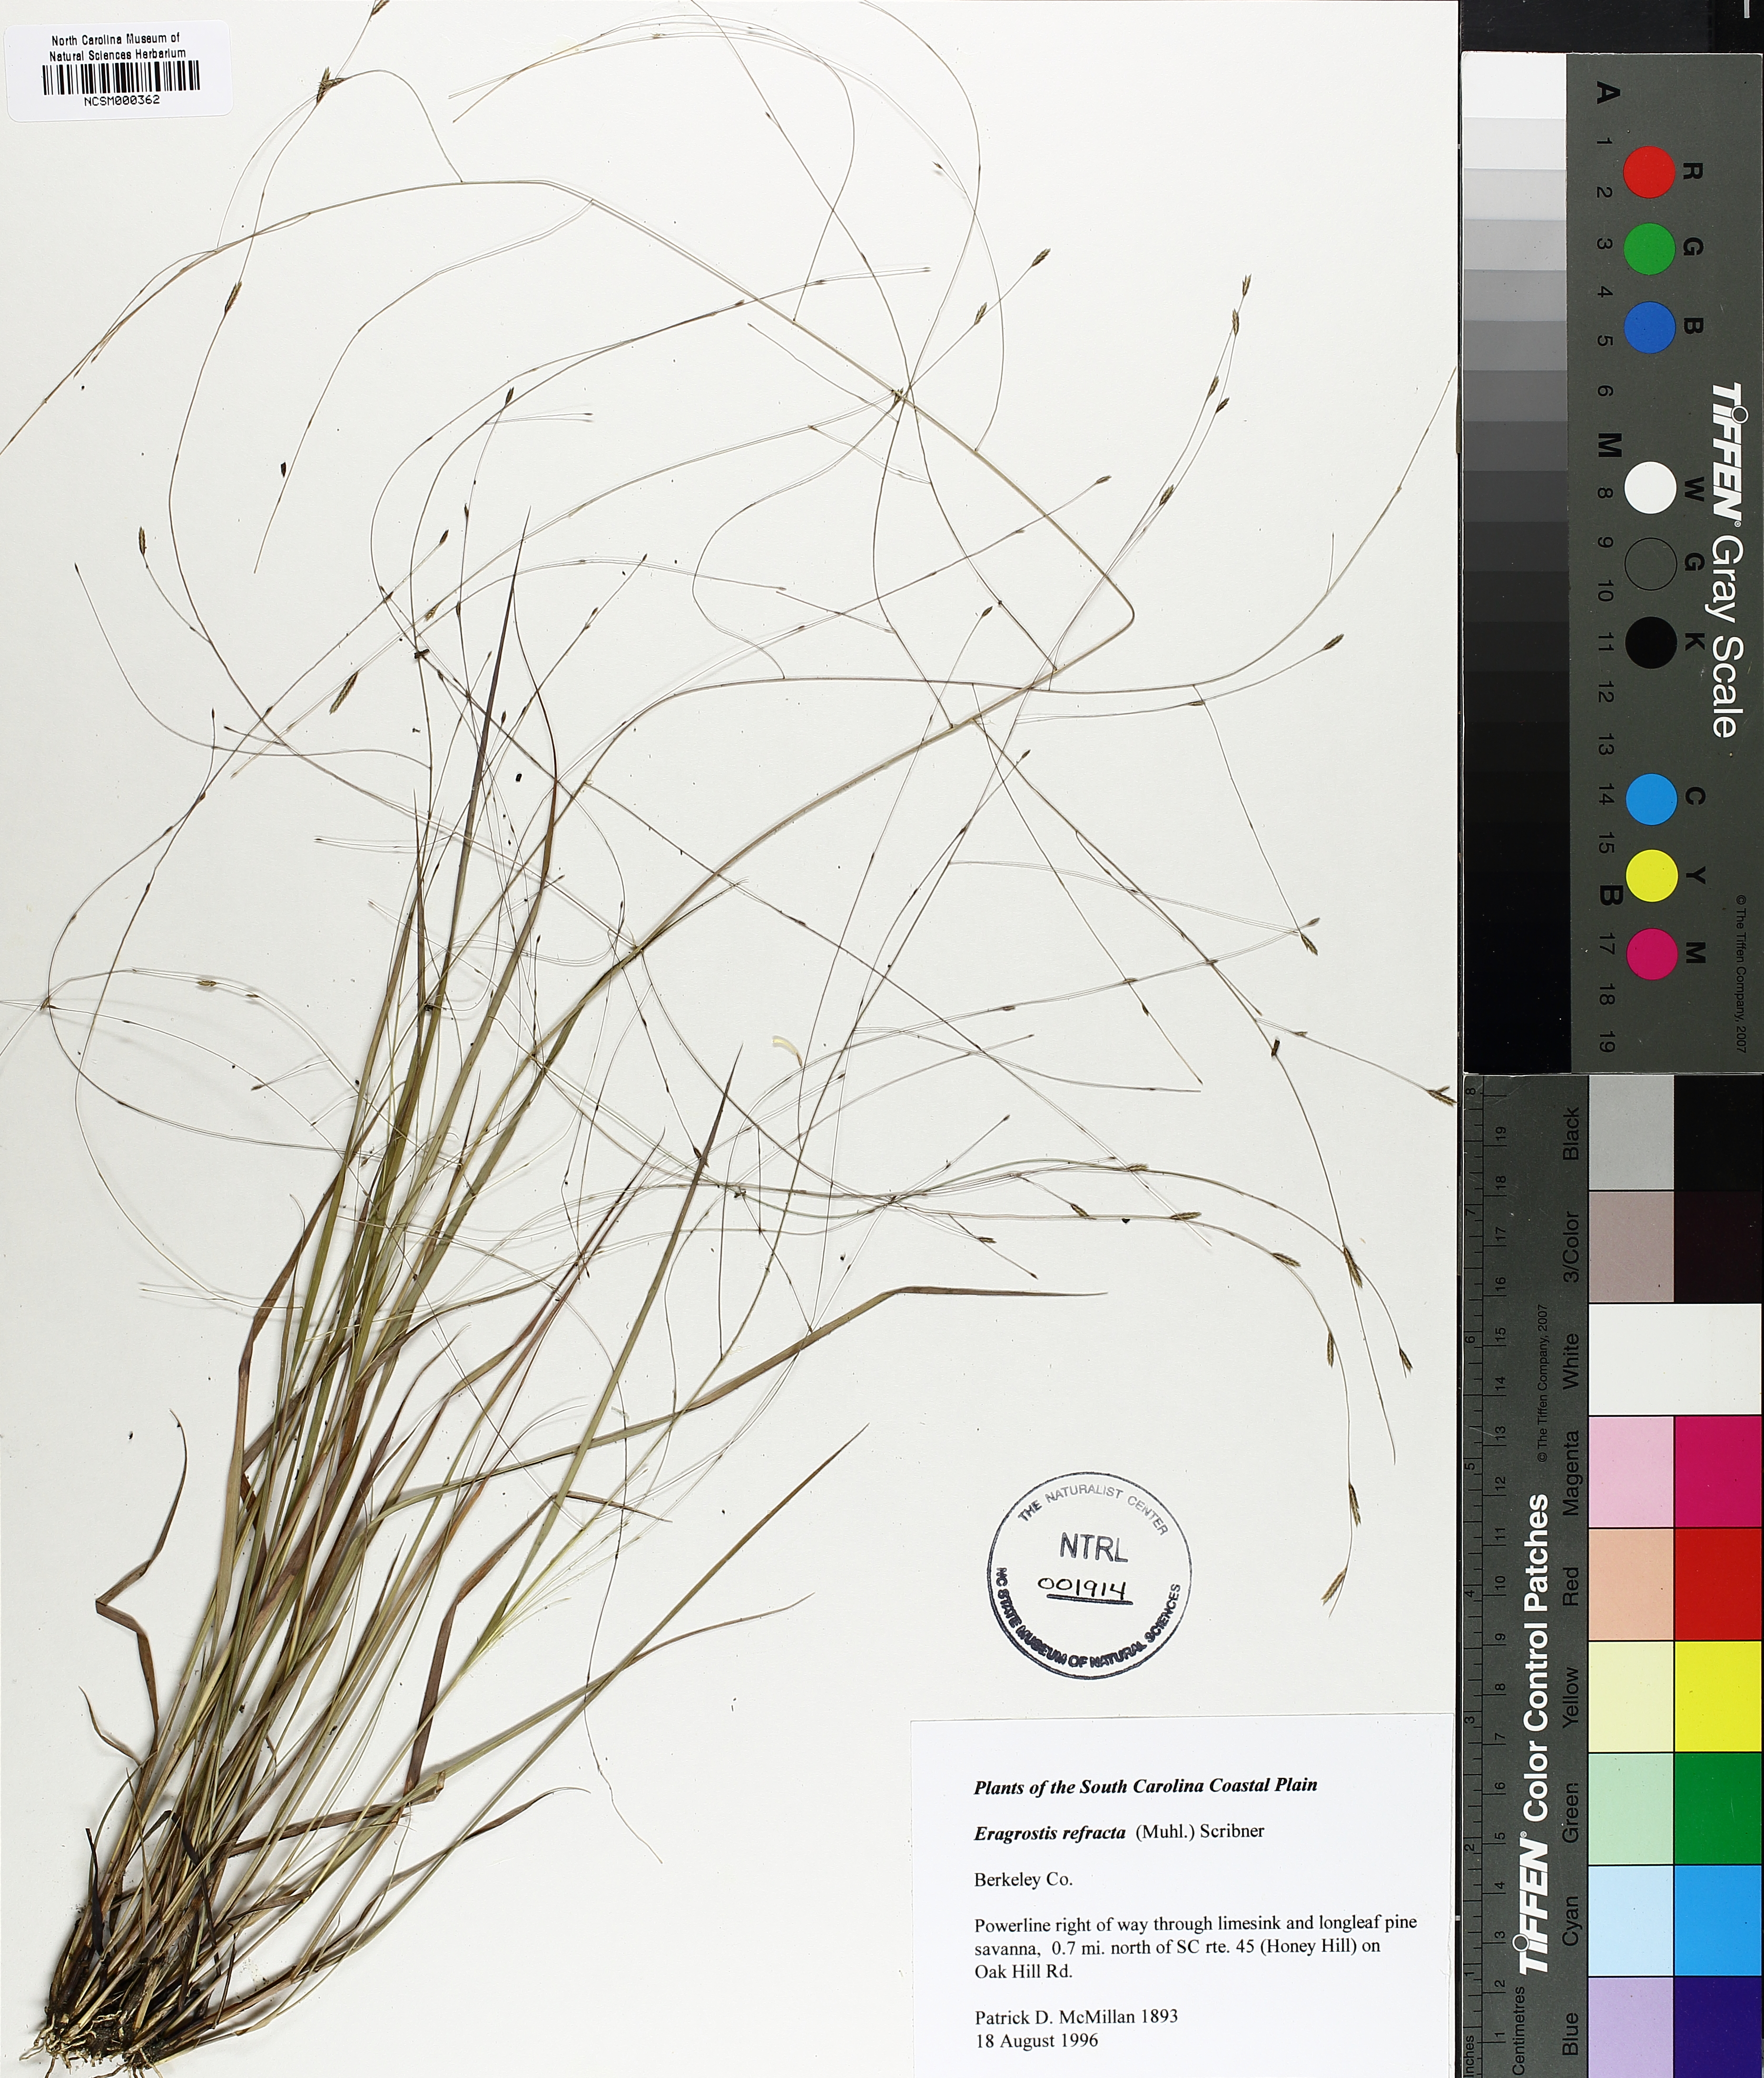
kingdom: Plantae
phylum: Tracheophyta
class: Liliopsida
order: Poales
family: Poaceae
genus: Eragrostis
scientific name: Eragrostis refracta
